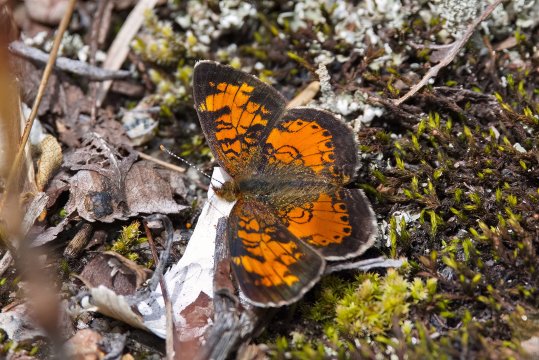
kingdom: Animalia
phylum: Arthropoda
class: Insecta
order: Lepidoptera
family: Nymphalidae
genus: Phyciodes
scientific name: Phyciodes tharos
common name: Northern Crescent
